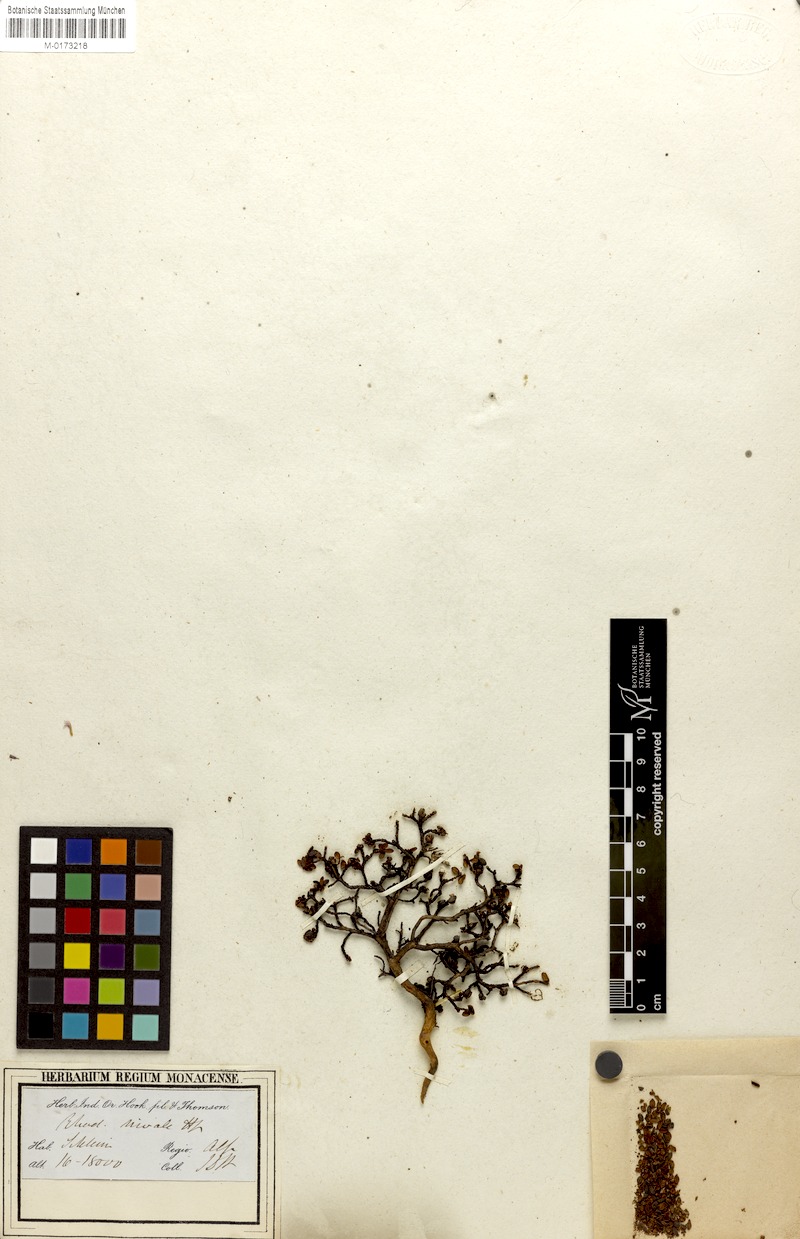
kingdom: Plantae
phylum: Tracheophyta
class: Magnoliopsida
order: Ericales
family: Ericaceae
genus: Rhododendron
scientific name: Rhododendron nivale
